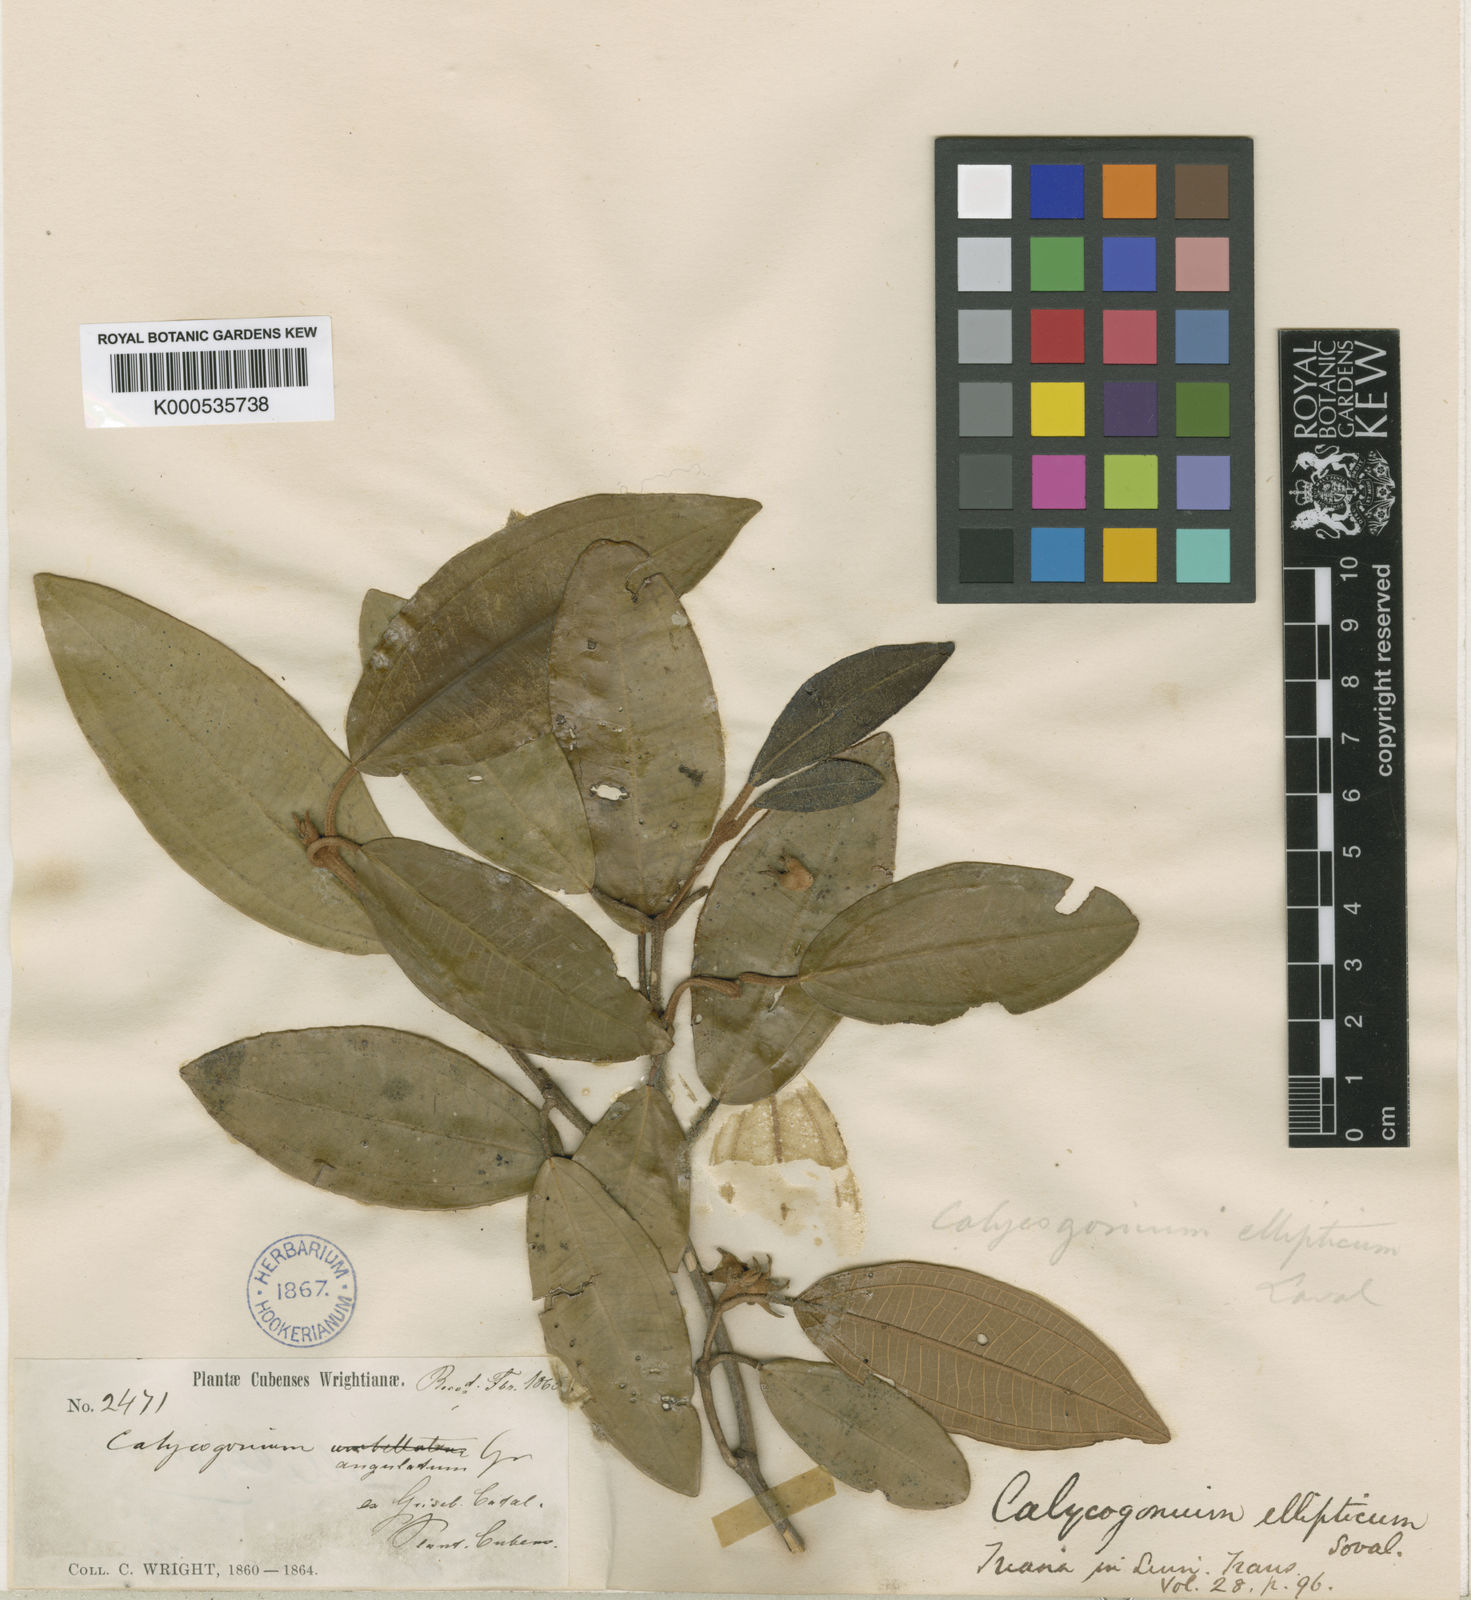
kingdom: Plantae
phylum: Tracheophyta
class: Magnoliopsida
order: Myrtales
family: Melastomataceae
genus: Miconia
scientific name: Miconia
